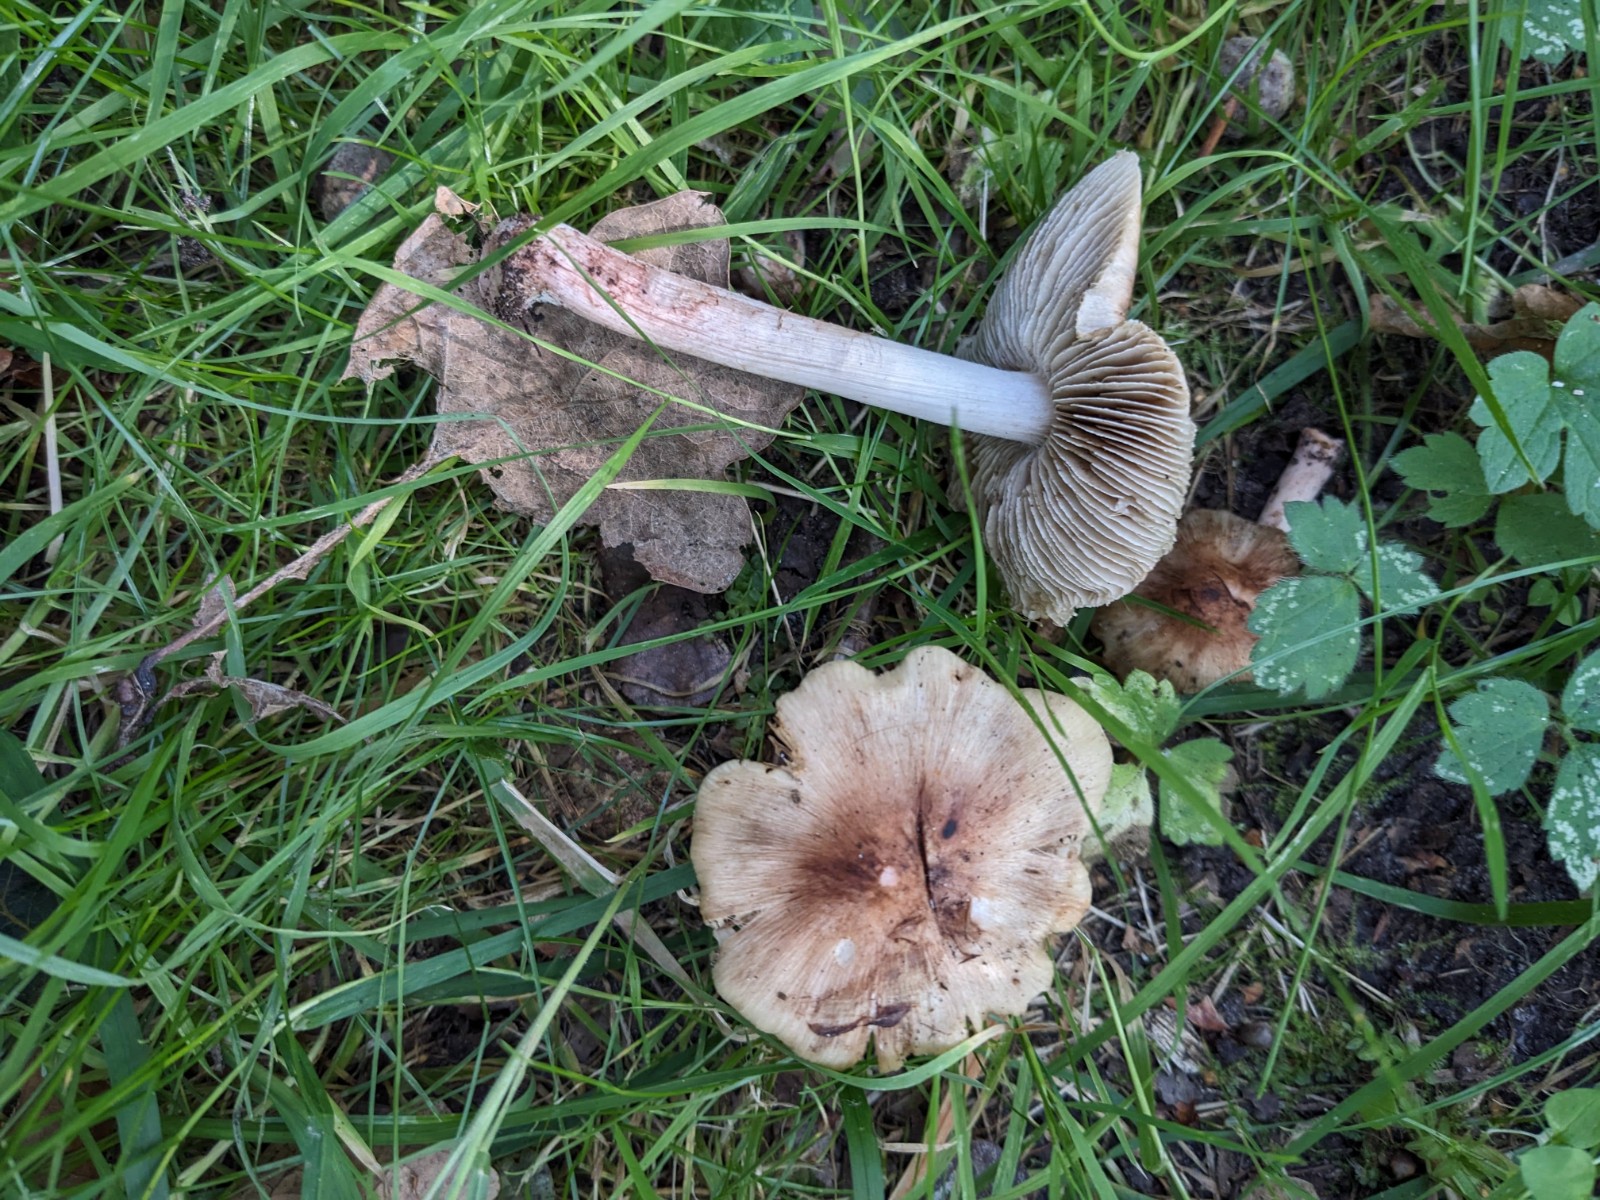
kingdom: Fungi
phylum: Basidiomycota
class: Agaricomycetes
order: Agaricales
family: Inocybaceae
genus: Inosperma
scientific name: Inosperma rhodiolum
